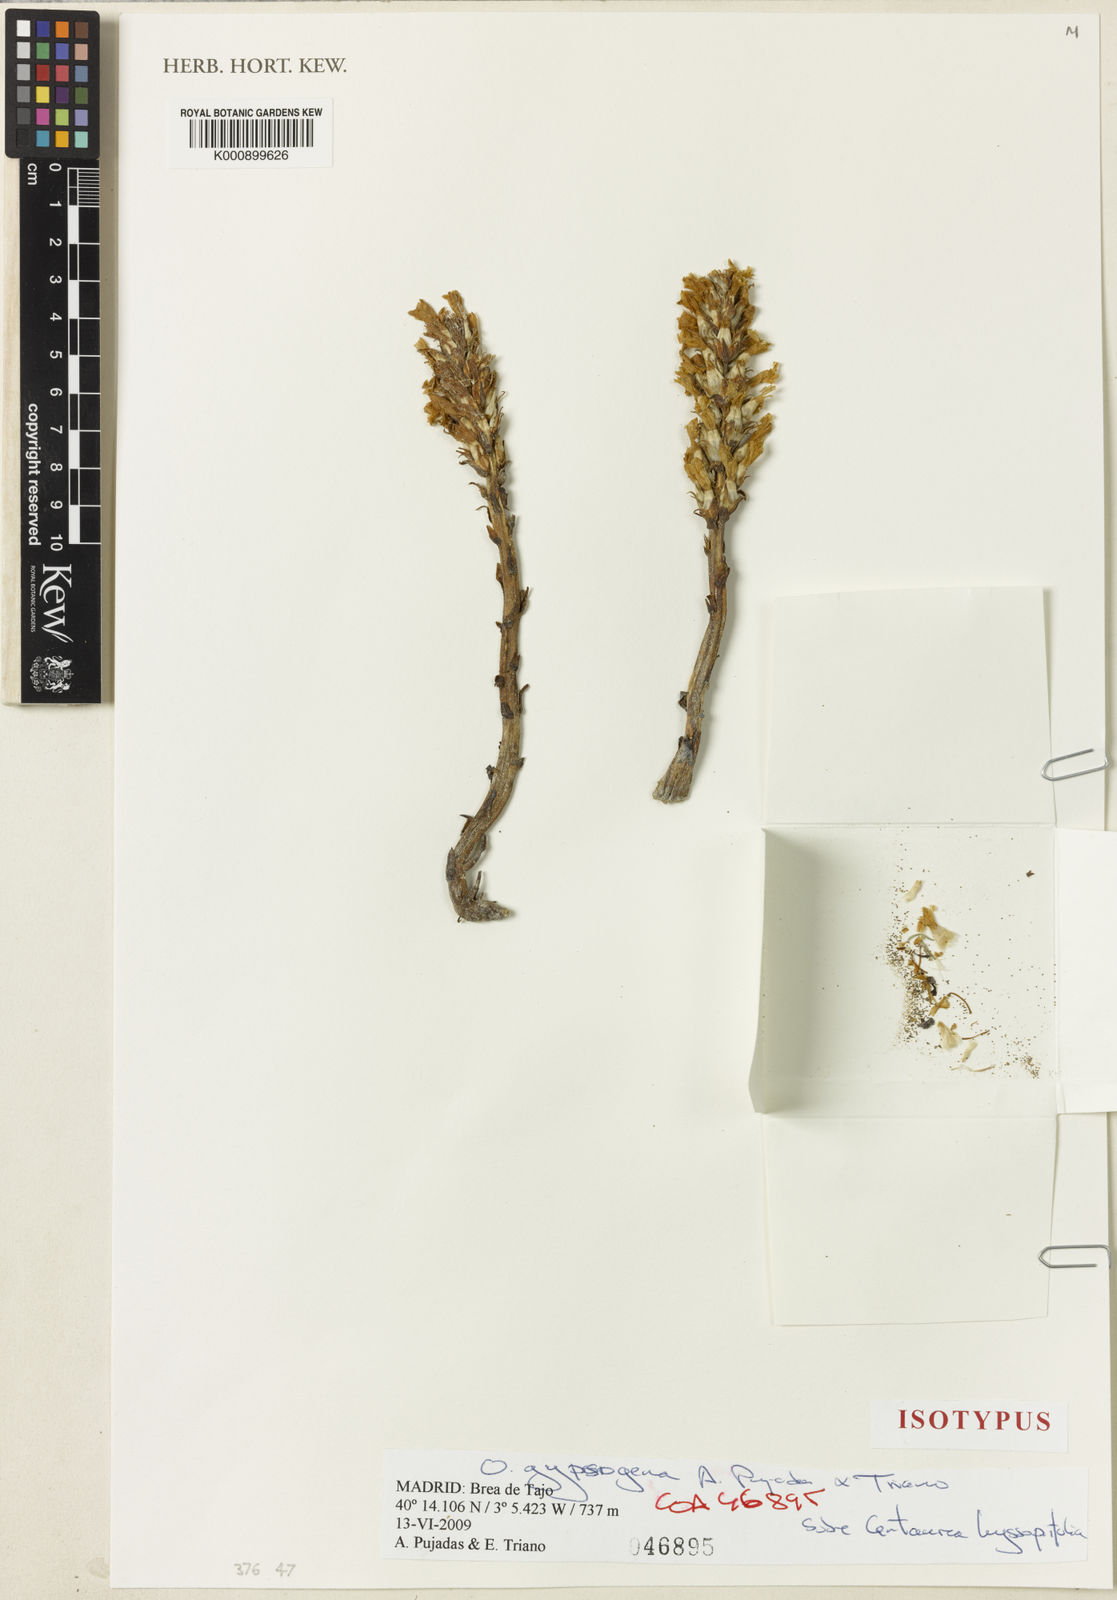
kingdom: Plantae
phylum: Tracheophyta
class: Magnoliopsida
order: Lamiales
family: Orobanchaceae
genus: Phelipanche
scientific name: Phelipanche portoilicitana
